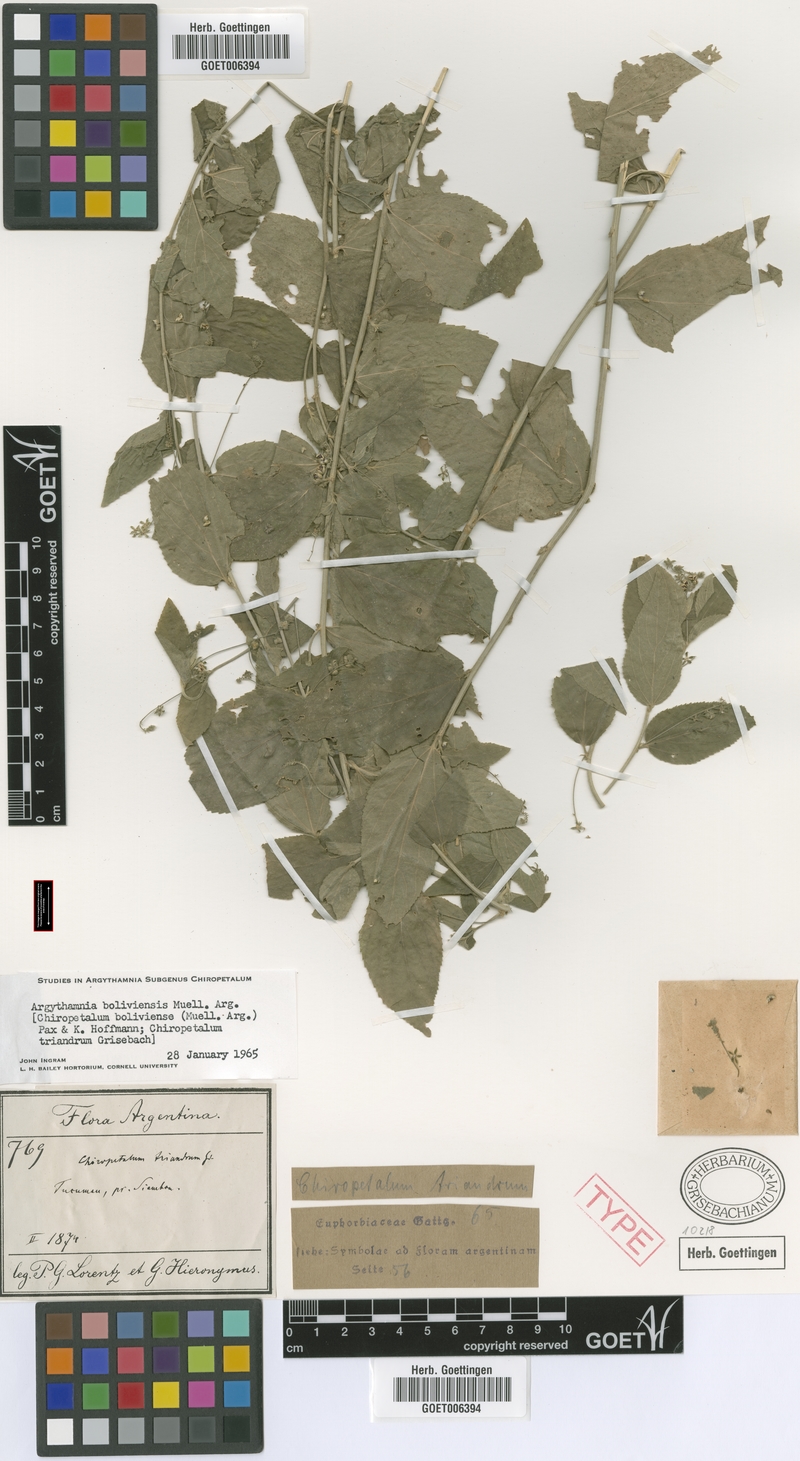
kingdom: Plantae
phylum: Tracheophyta
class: Magnoliopsida
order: Malpighiales
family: Euphorbiaceae
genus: Chiropetalum
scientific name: Chiropetalum boliviense
